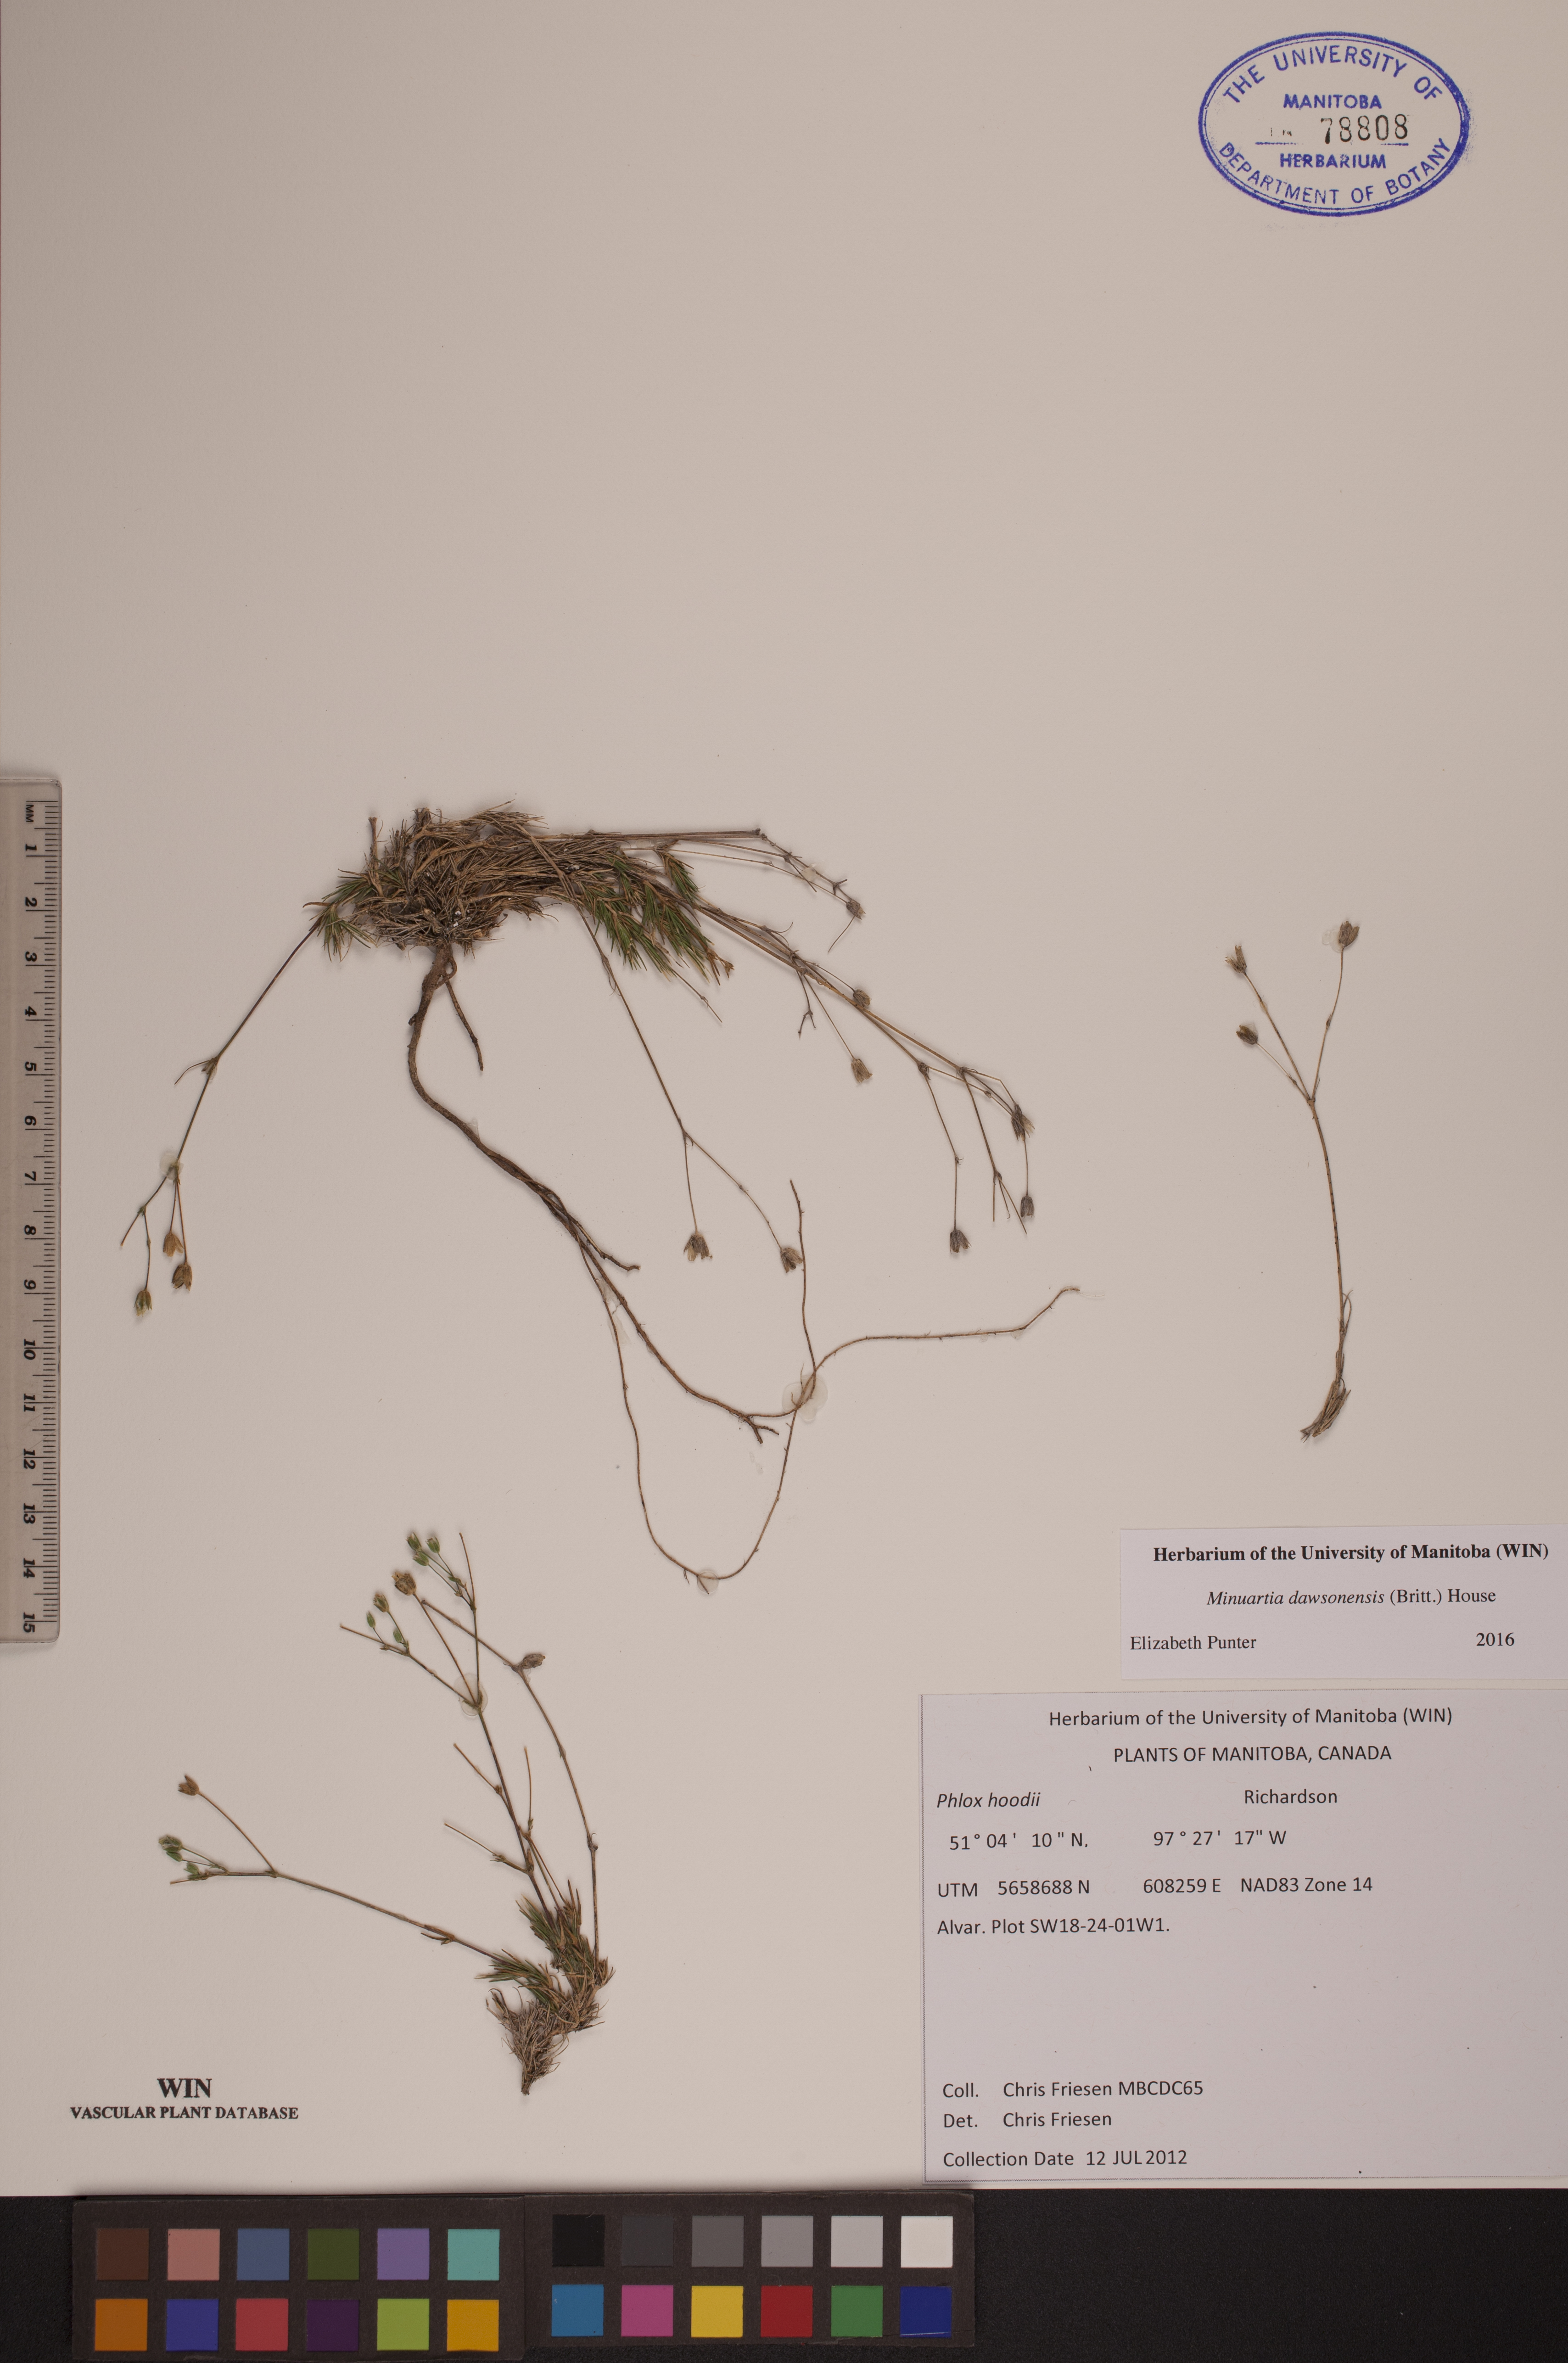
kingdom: Plantae
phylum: Tracheophyta
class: Magnoliopsida
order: Caryophyllales
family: Caryophyllaceae
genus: Sabulina
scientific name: Sabulina dawsonensis
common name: Dawson's cockle
